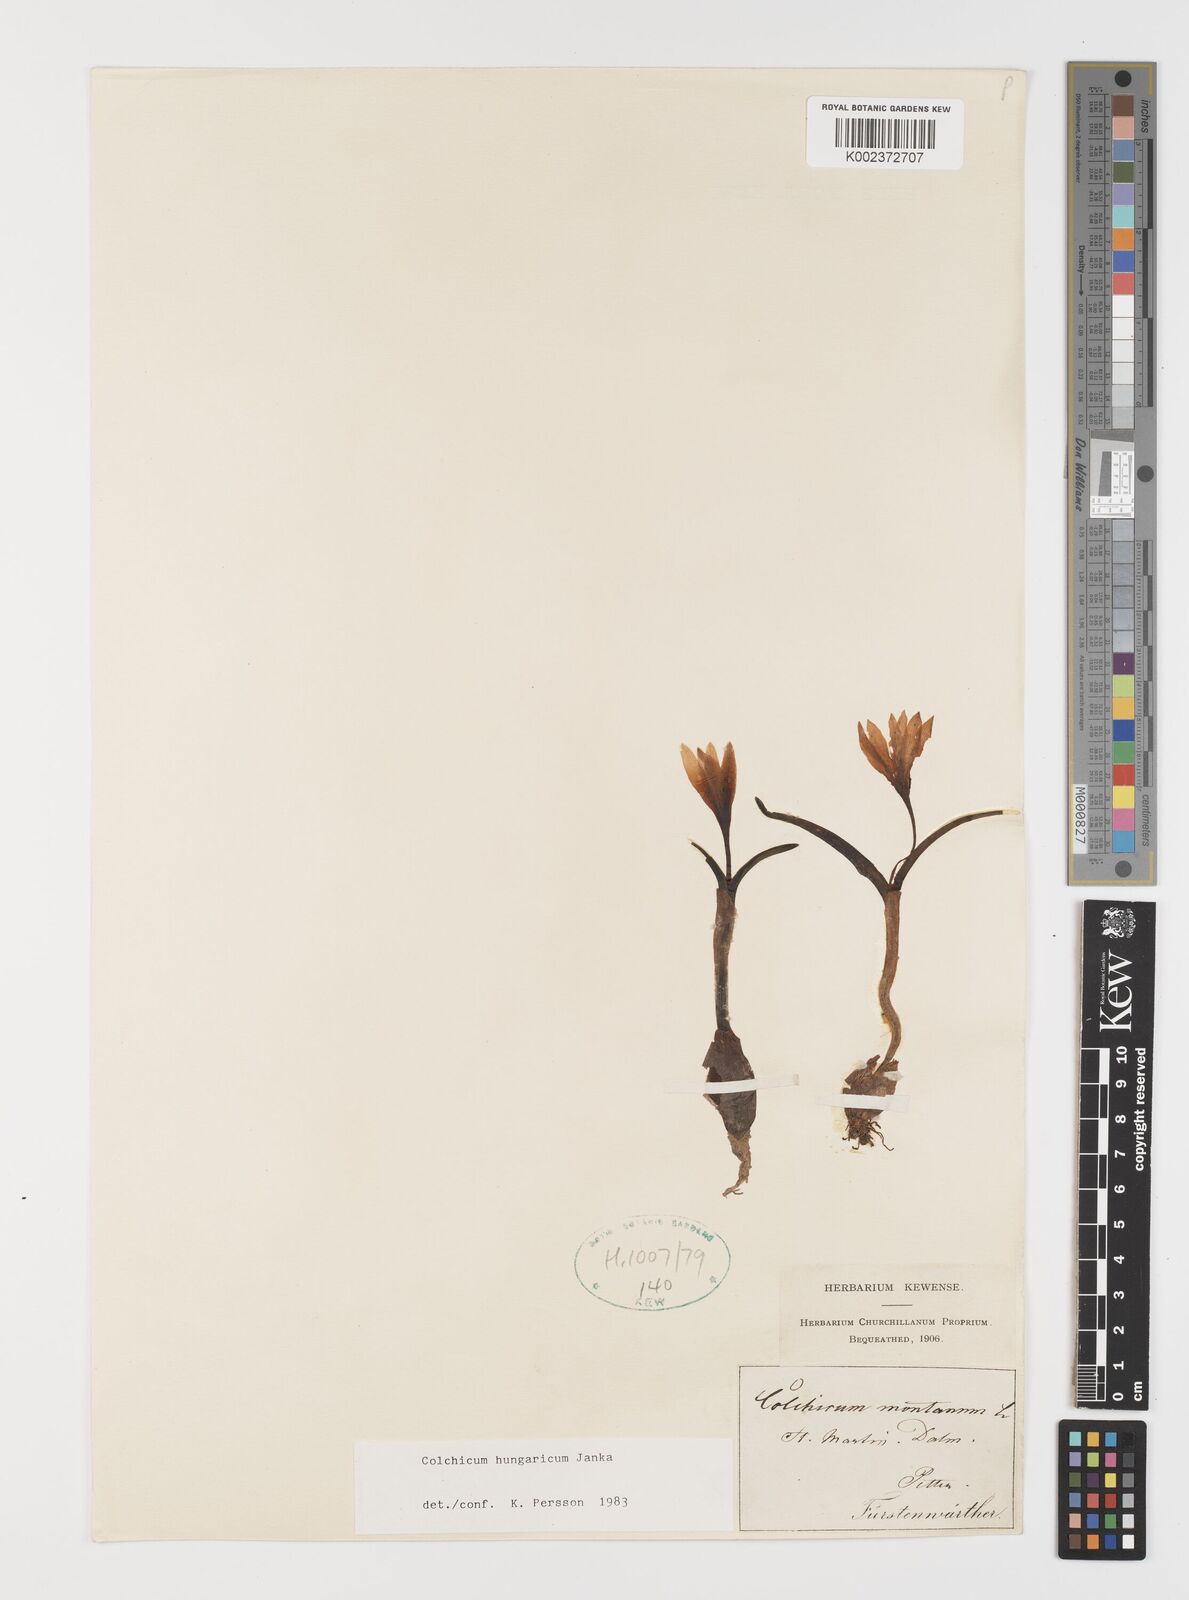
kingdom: Plantae
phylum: Tracheophyta
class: Liliopsida
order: Liliales
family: Colchicaceae
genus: Colchicum
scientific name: Colchicum hungaricum
